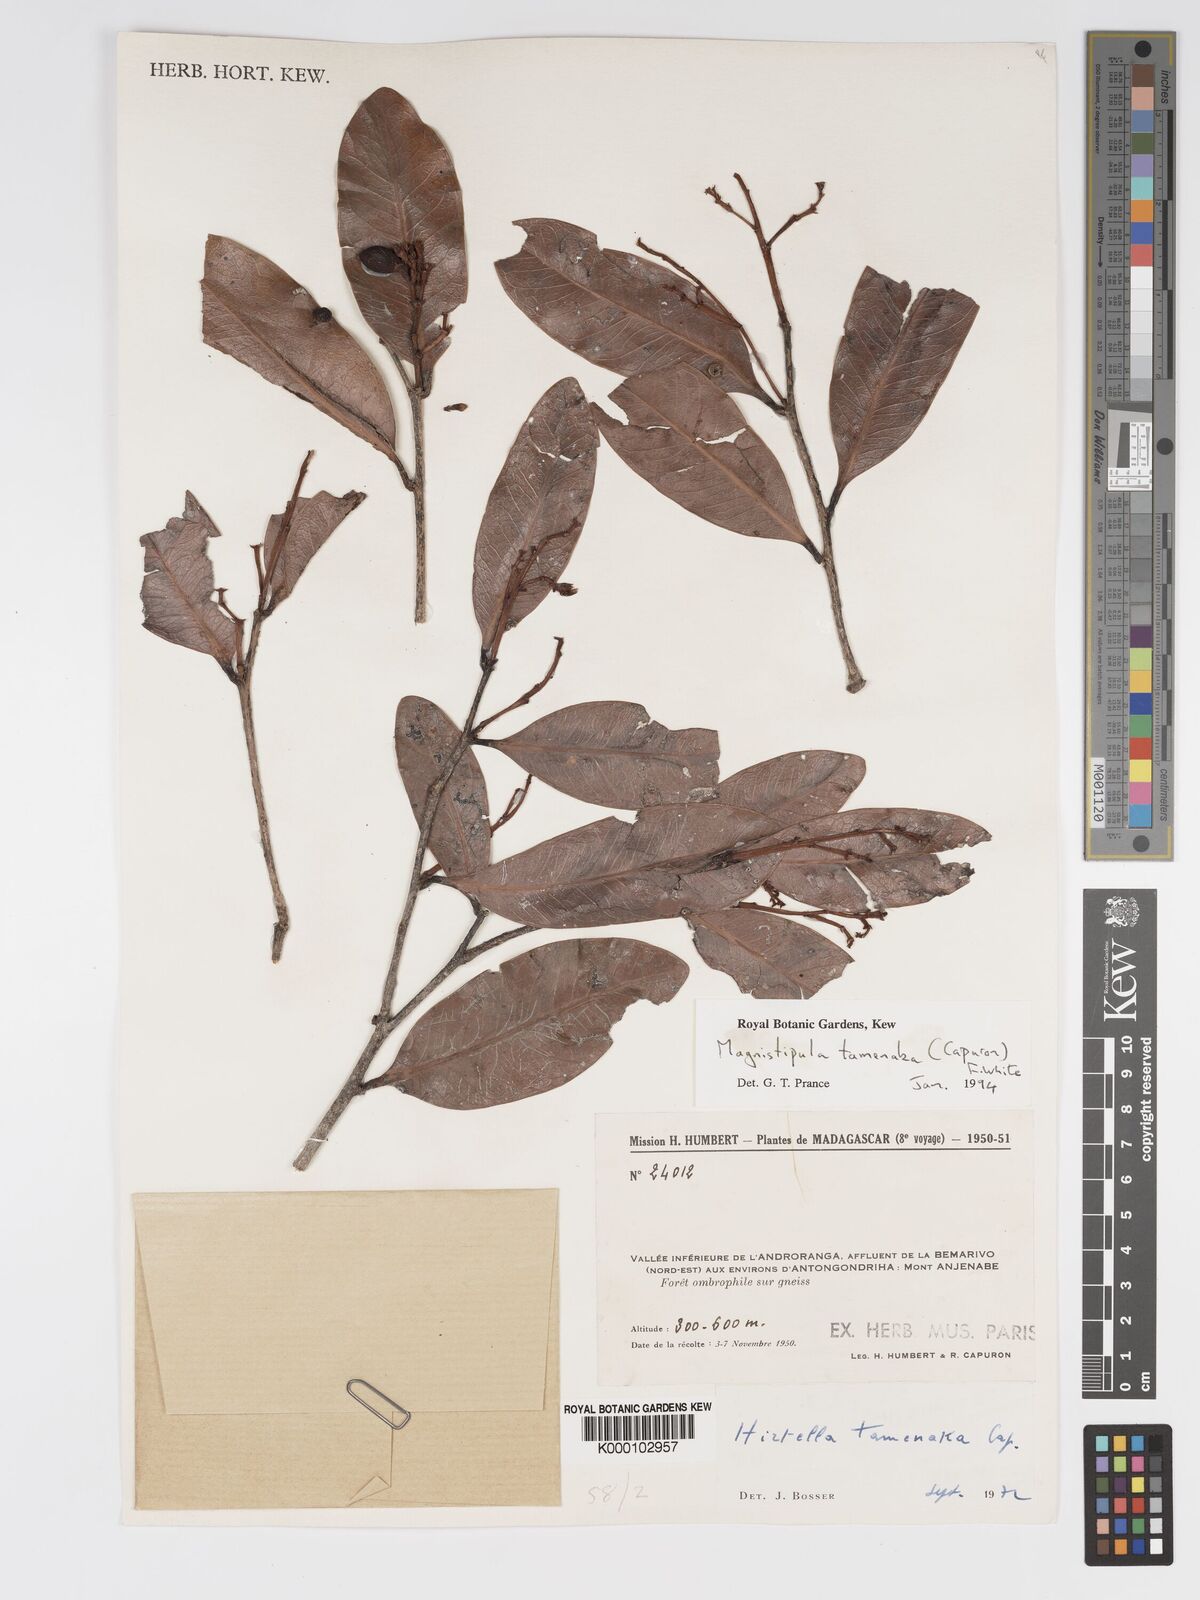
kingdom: Plantae
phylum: Tracheophyta
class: Magnoliopsida
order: Malpighiales
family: Chrysobalanaceae
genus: Magnistipula
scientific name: Magnistipula tamenaka
